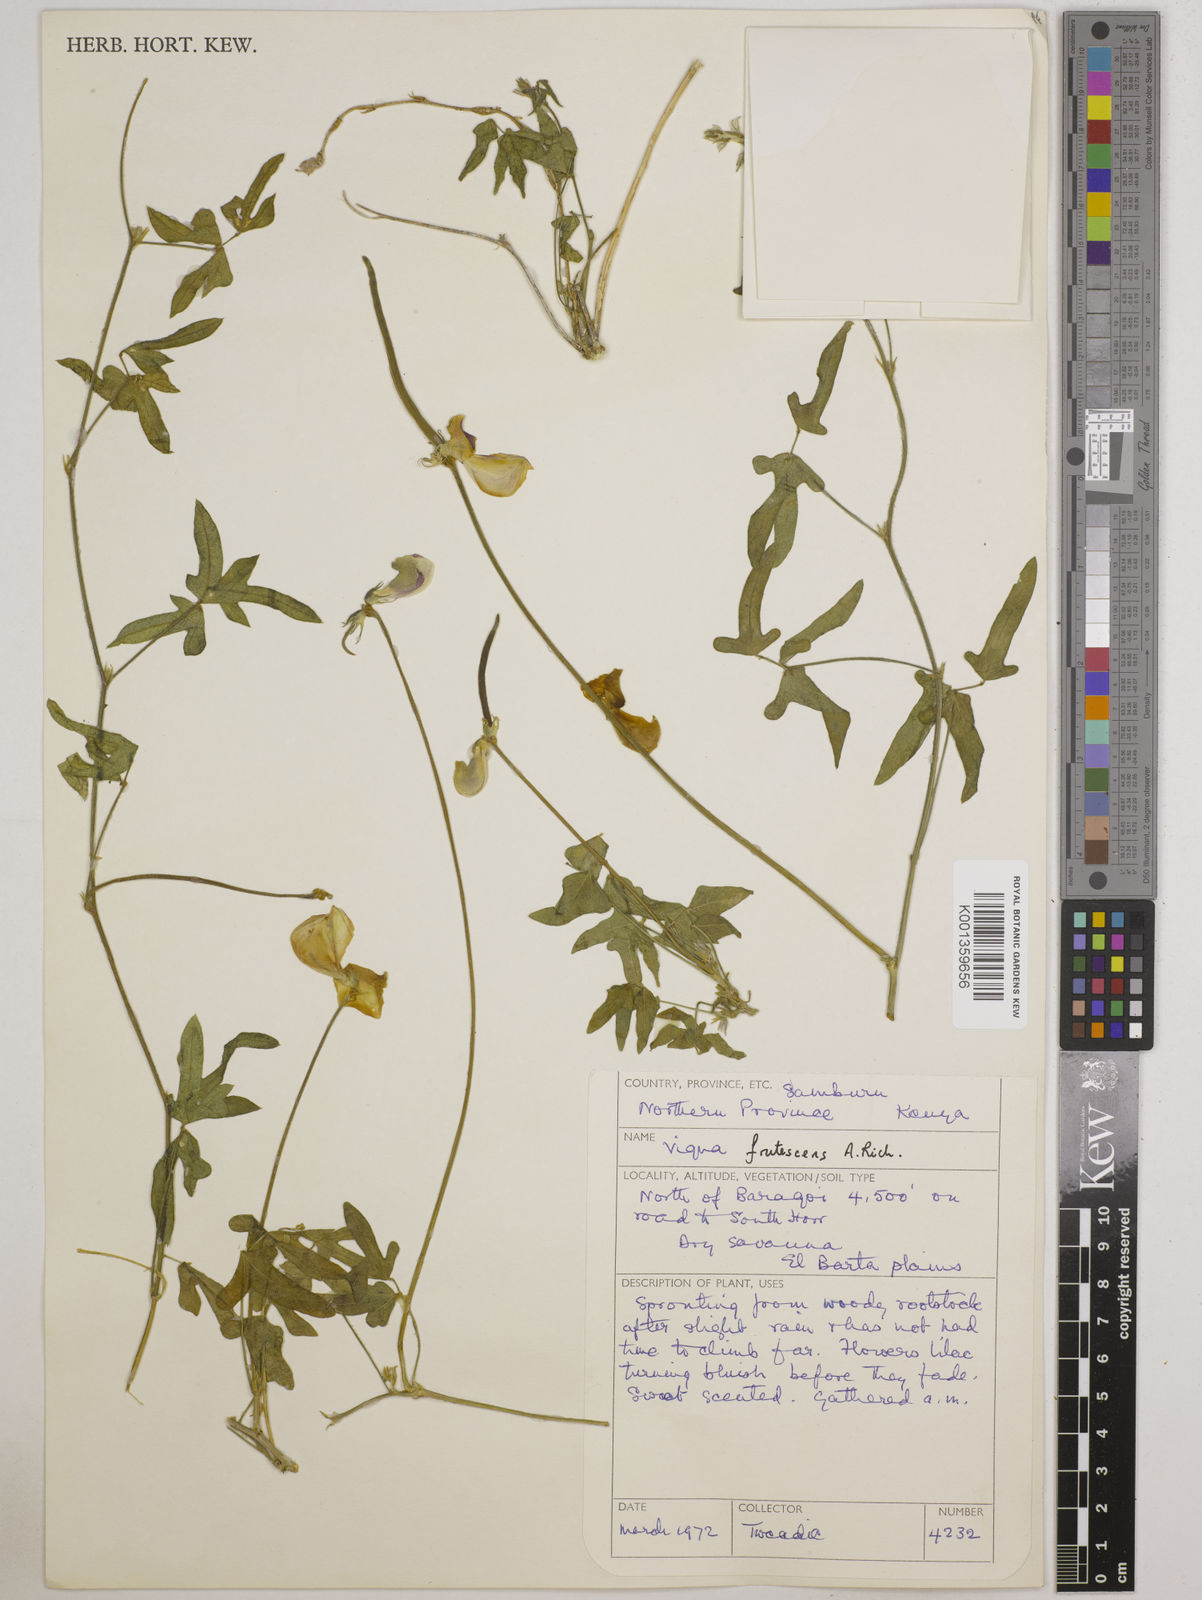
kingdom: Plantae
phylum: Tracheophyta
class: Magnoliopsida
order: Fabales
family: Fabaceae
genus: Vigna
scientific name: Vigna frutescens
